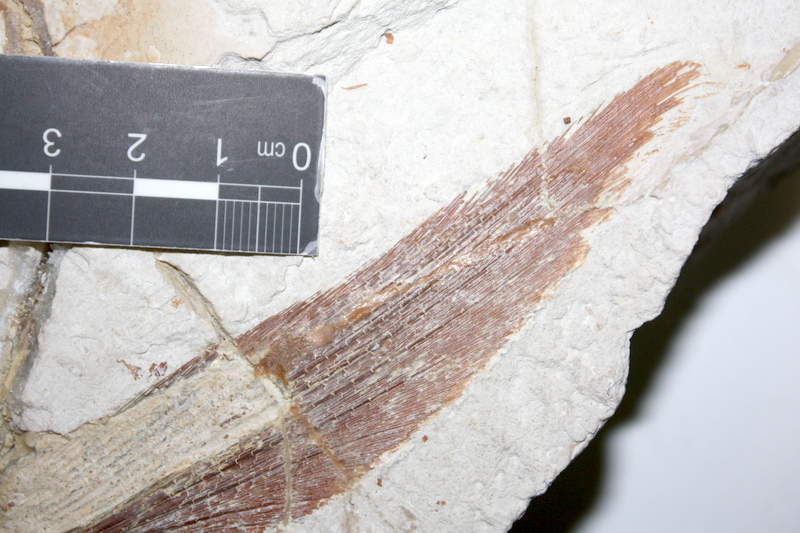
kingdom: Animalia
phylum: Chordata
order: Amiiformes
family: Caturidae
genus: Caturus
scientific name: Caturus
